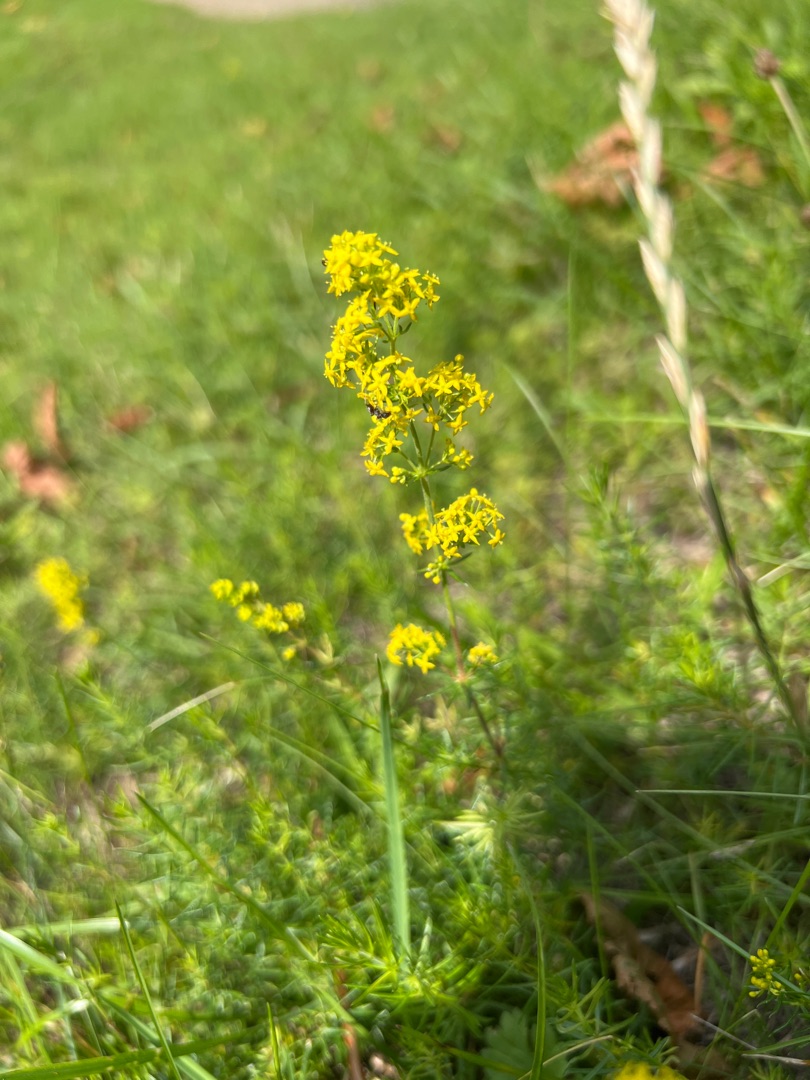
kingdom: Plantae
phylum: Tracheophyta
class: Magnoliopsida
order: Gentianales
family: Rubiaceae
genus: Galium
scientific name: Galium verum
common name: Gul snerre
